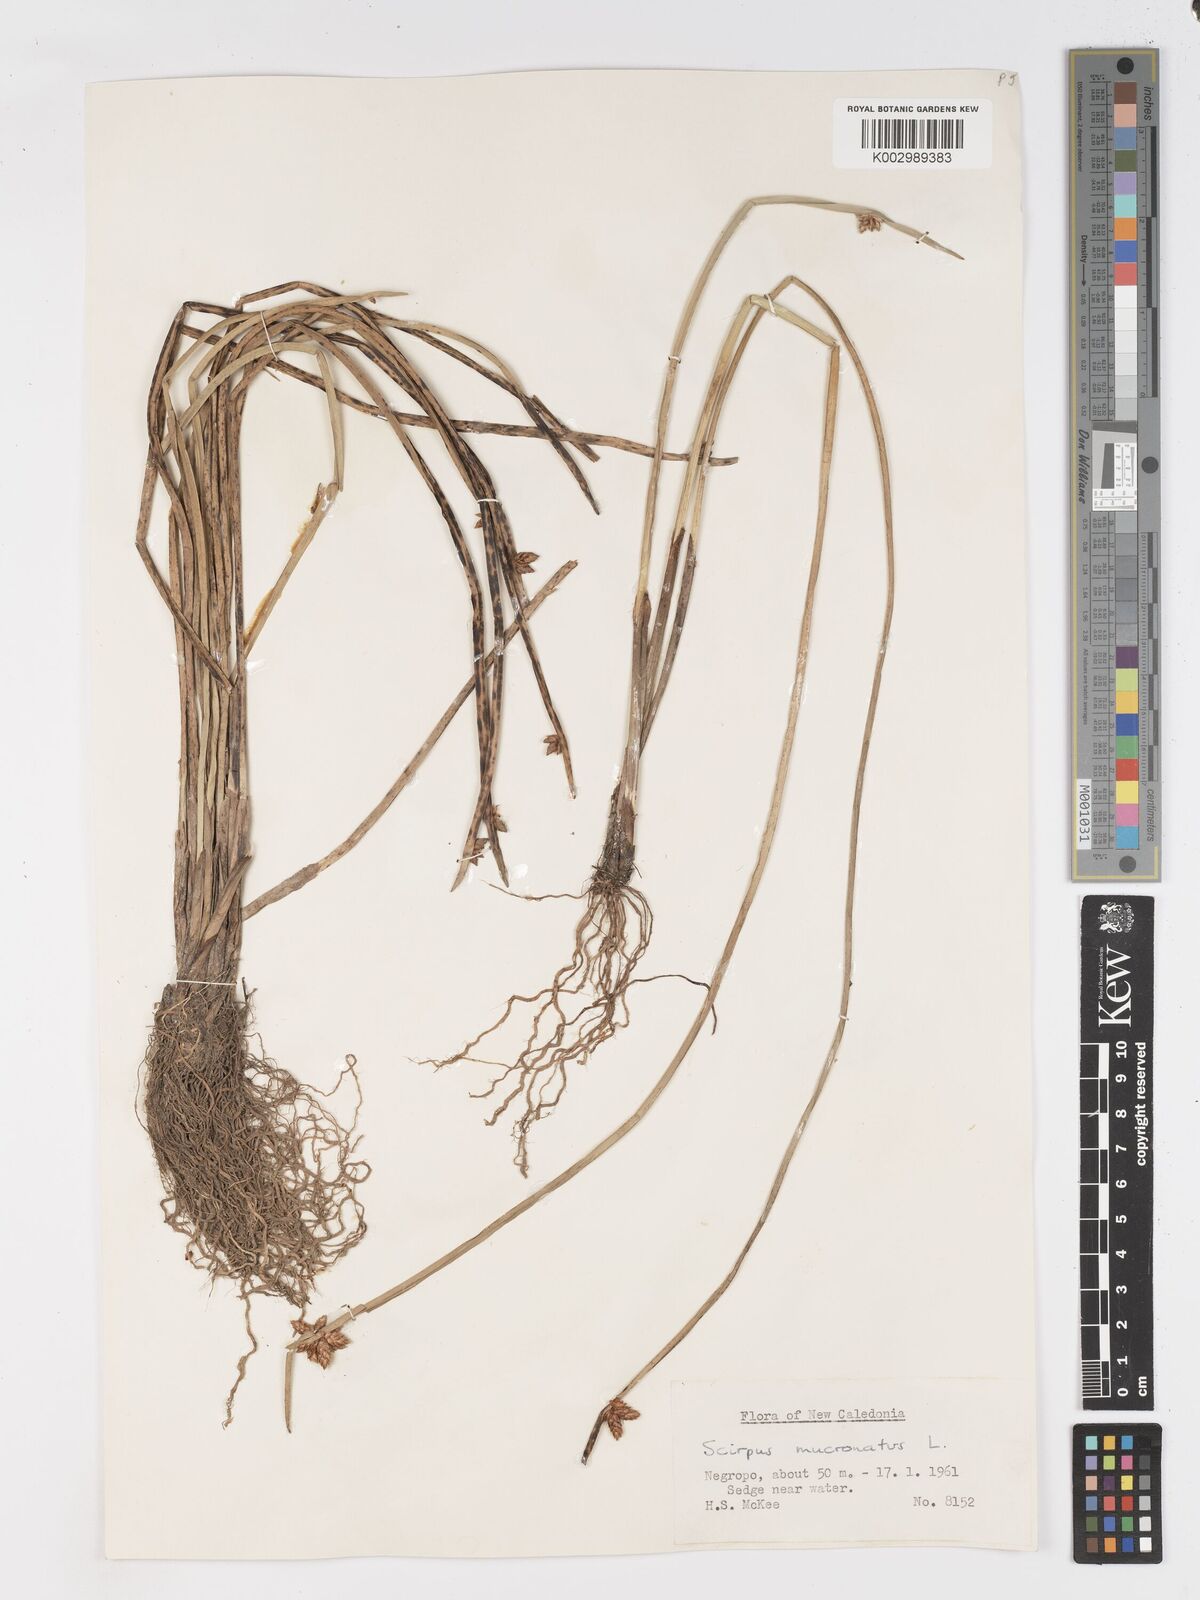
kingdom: Plantae
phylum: Tracheophyta
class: Liliopsida
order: Poales
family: Cyperaceae
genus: Schoenoplectiella
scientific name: Schoenoplectiella mucronata
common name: Bog bulrush
